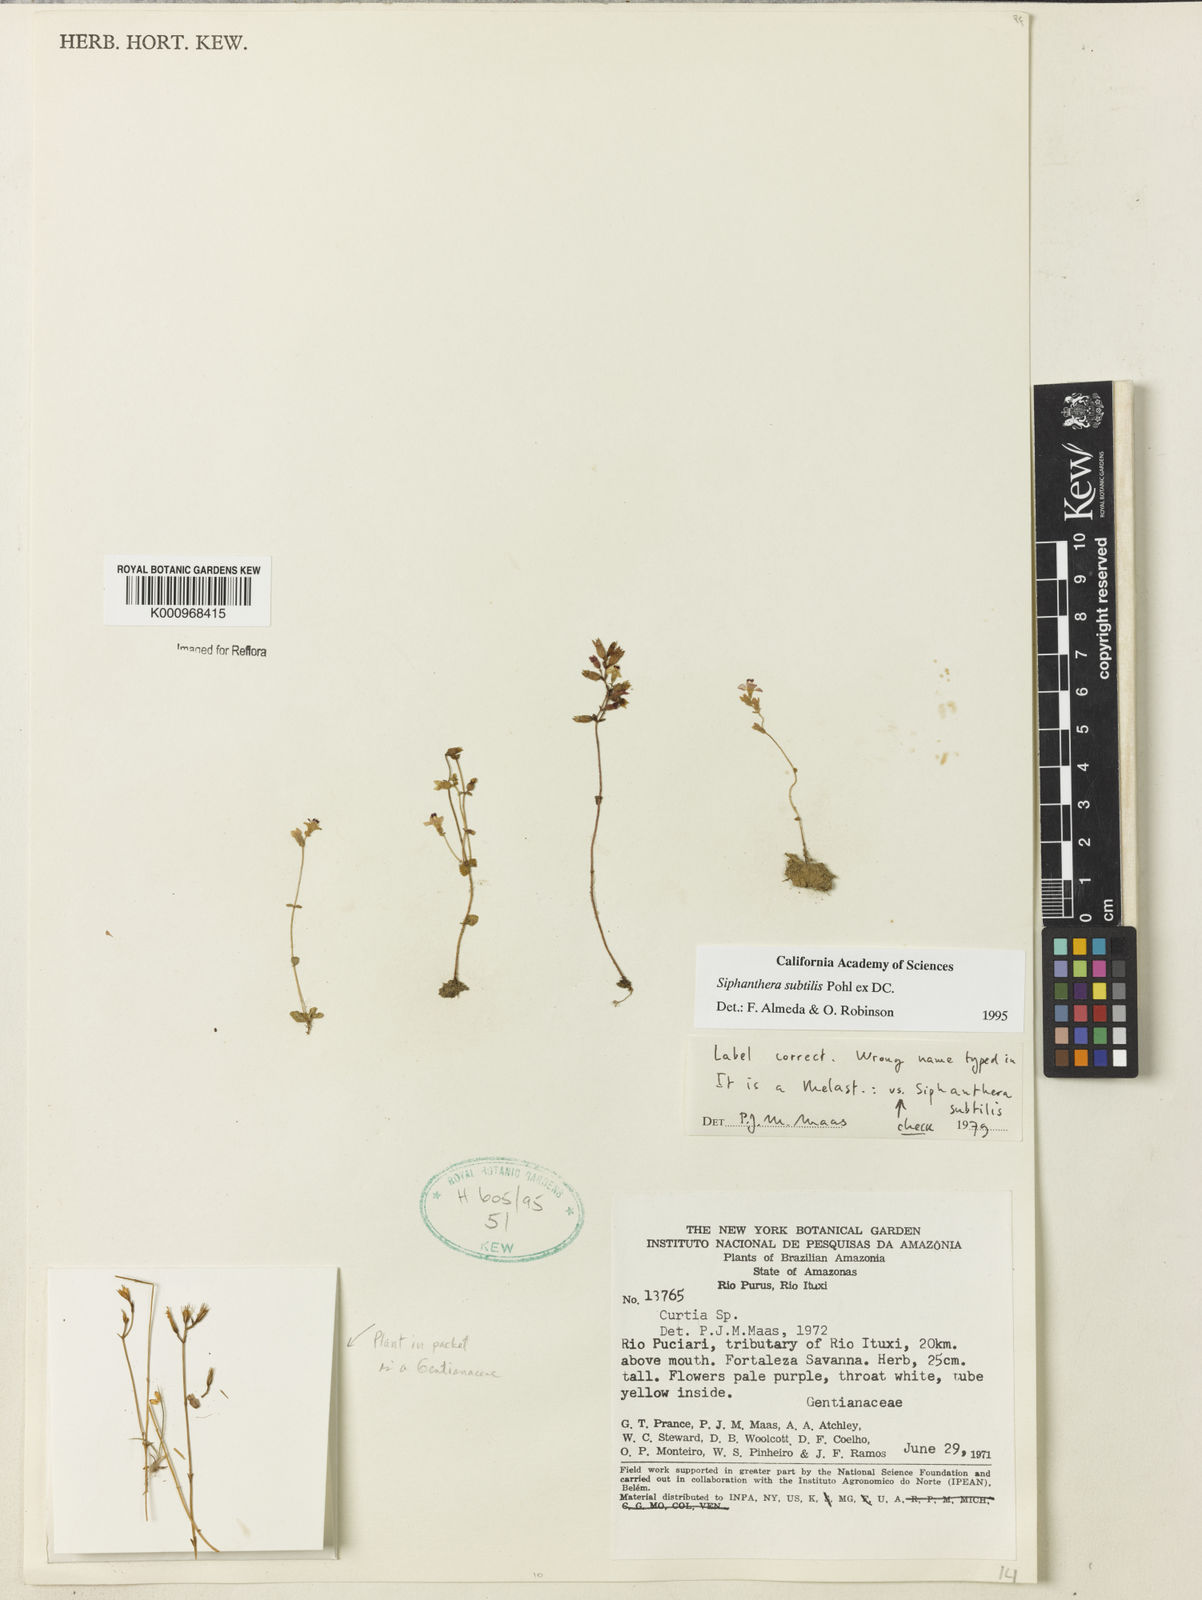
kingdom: Plantae
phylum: Tracheophyta
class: Magnoliopsida
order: Myrtales
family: Melastomataceae
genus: Siphanthera
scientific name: Siphanthera
